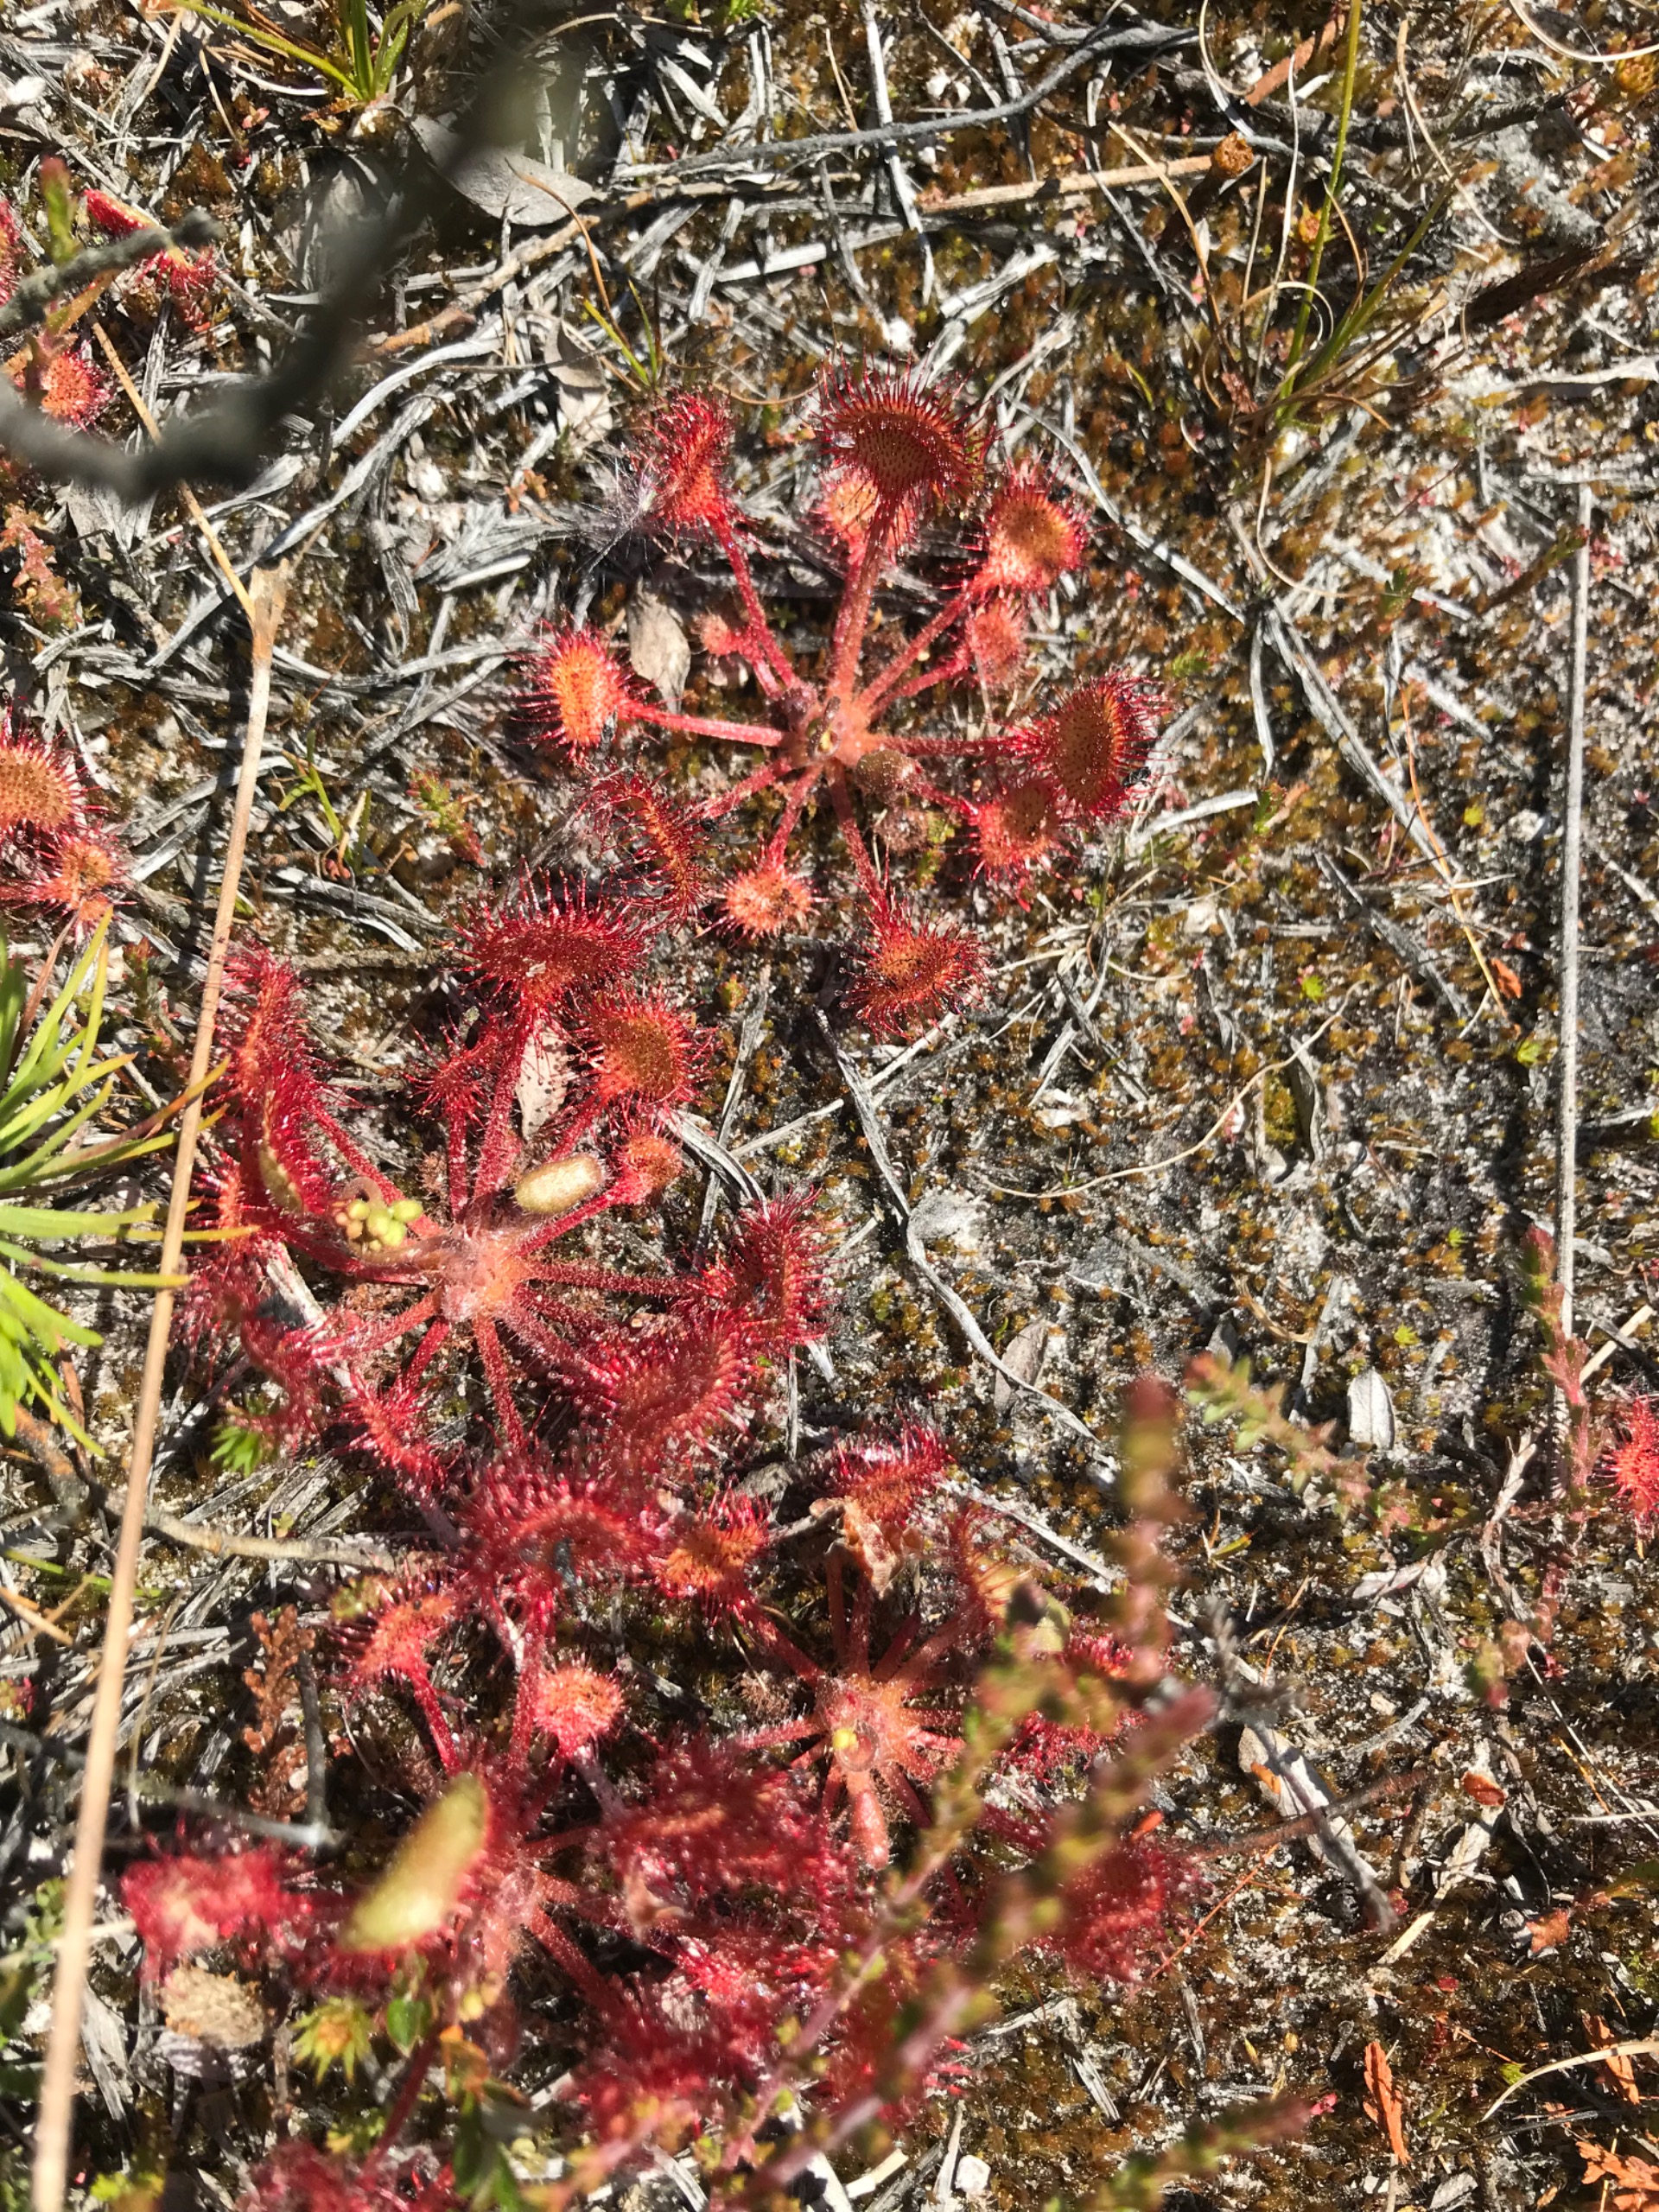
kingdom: Plantae
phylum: Tracheophyta
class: Magnoliopsida
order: Caryophyllales
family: Droseraceae
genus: Drosera
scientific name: Drosera rotundifolia
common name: Rundbladet soldug
